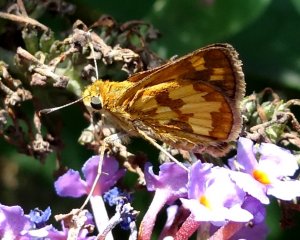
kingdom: Animalia
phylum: Arthropoda
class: Insecta
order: Lepidoptera
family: Hesperiidae
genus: Polites
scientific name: Polites coras
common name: Peck's Skipper
